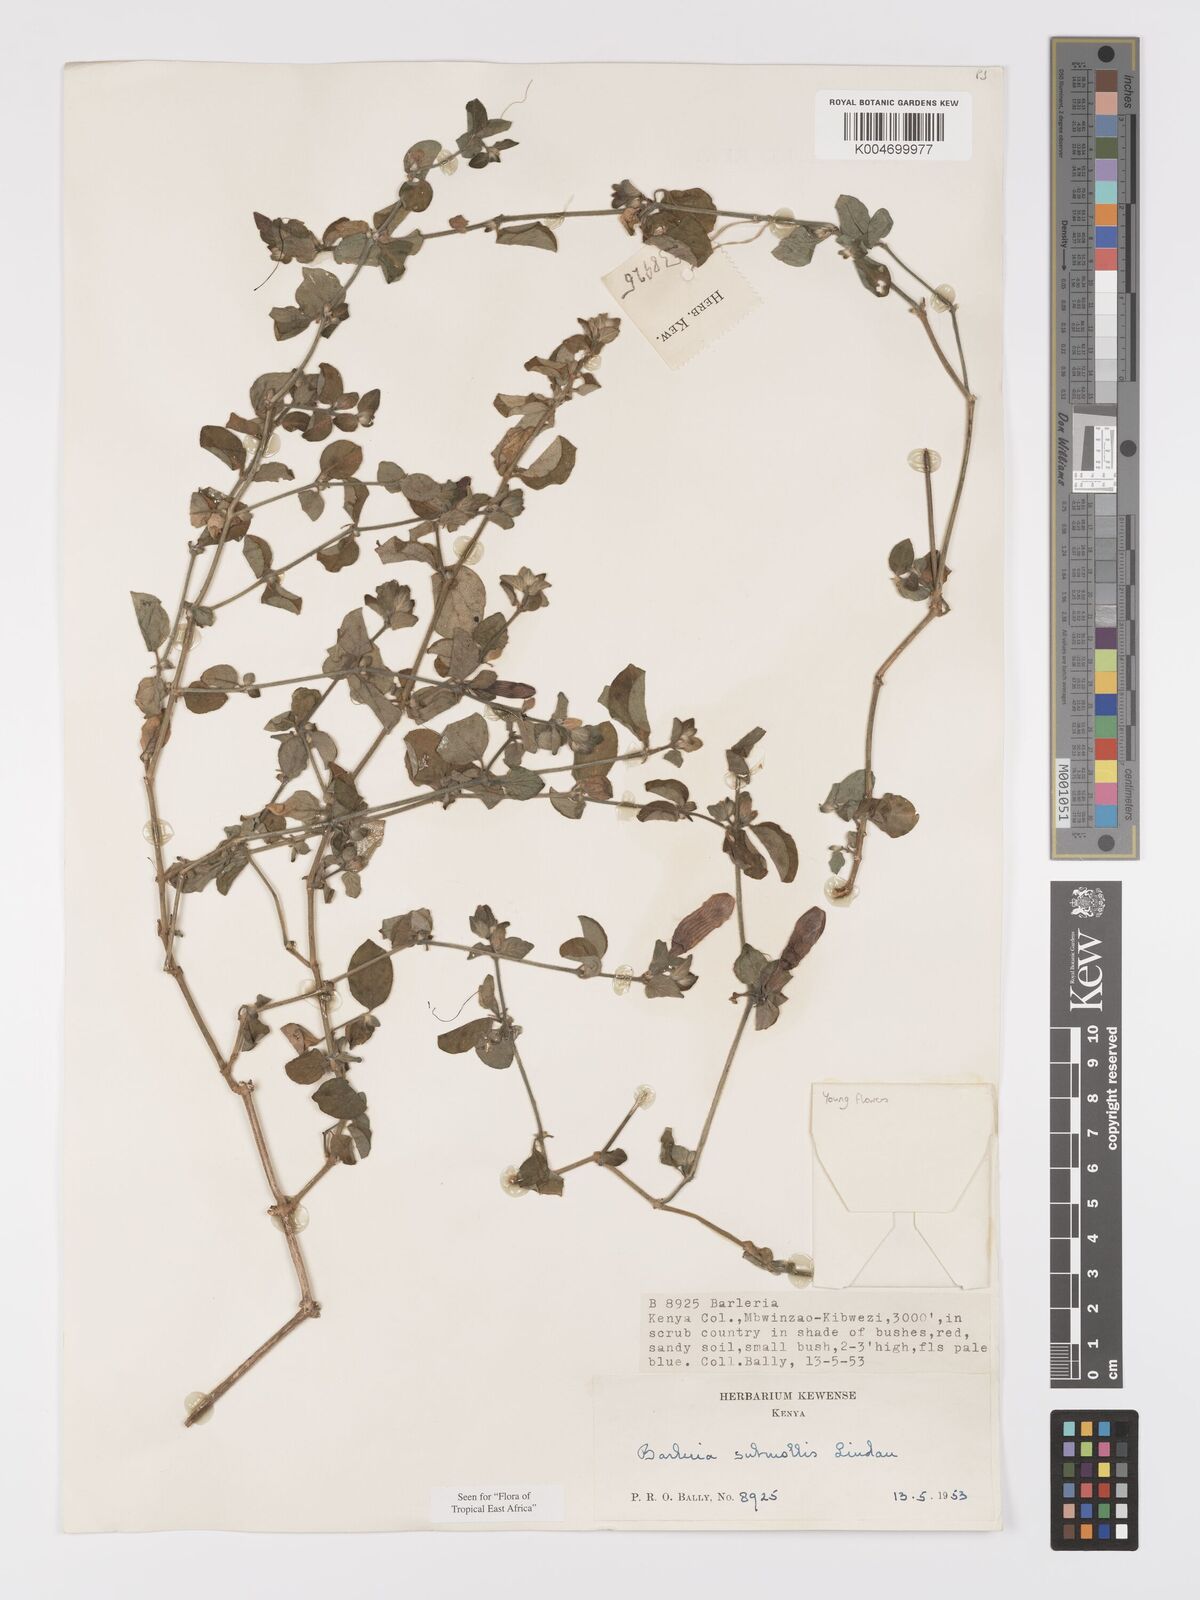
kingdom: Plantae
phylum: Tracheophyta
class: Magnoliopsida
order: Lamiales
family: Acanthaceae
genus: Barleria
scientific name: Barleria submollis
